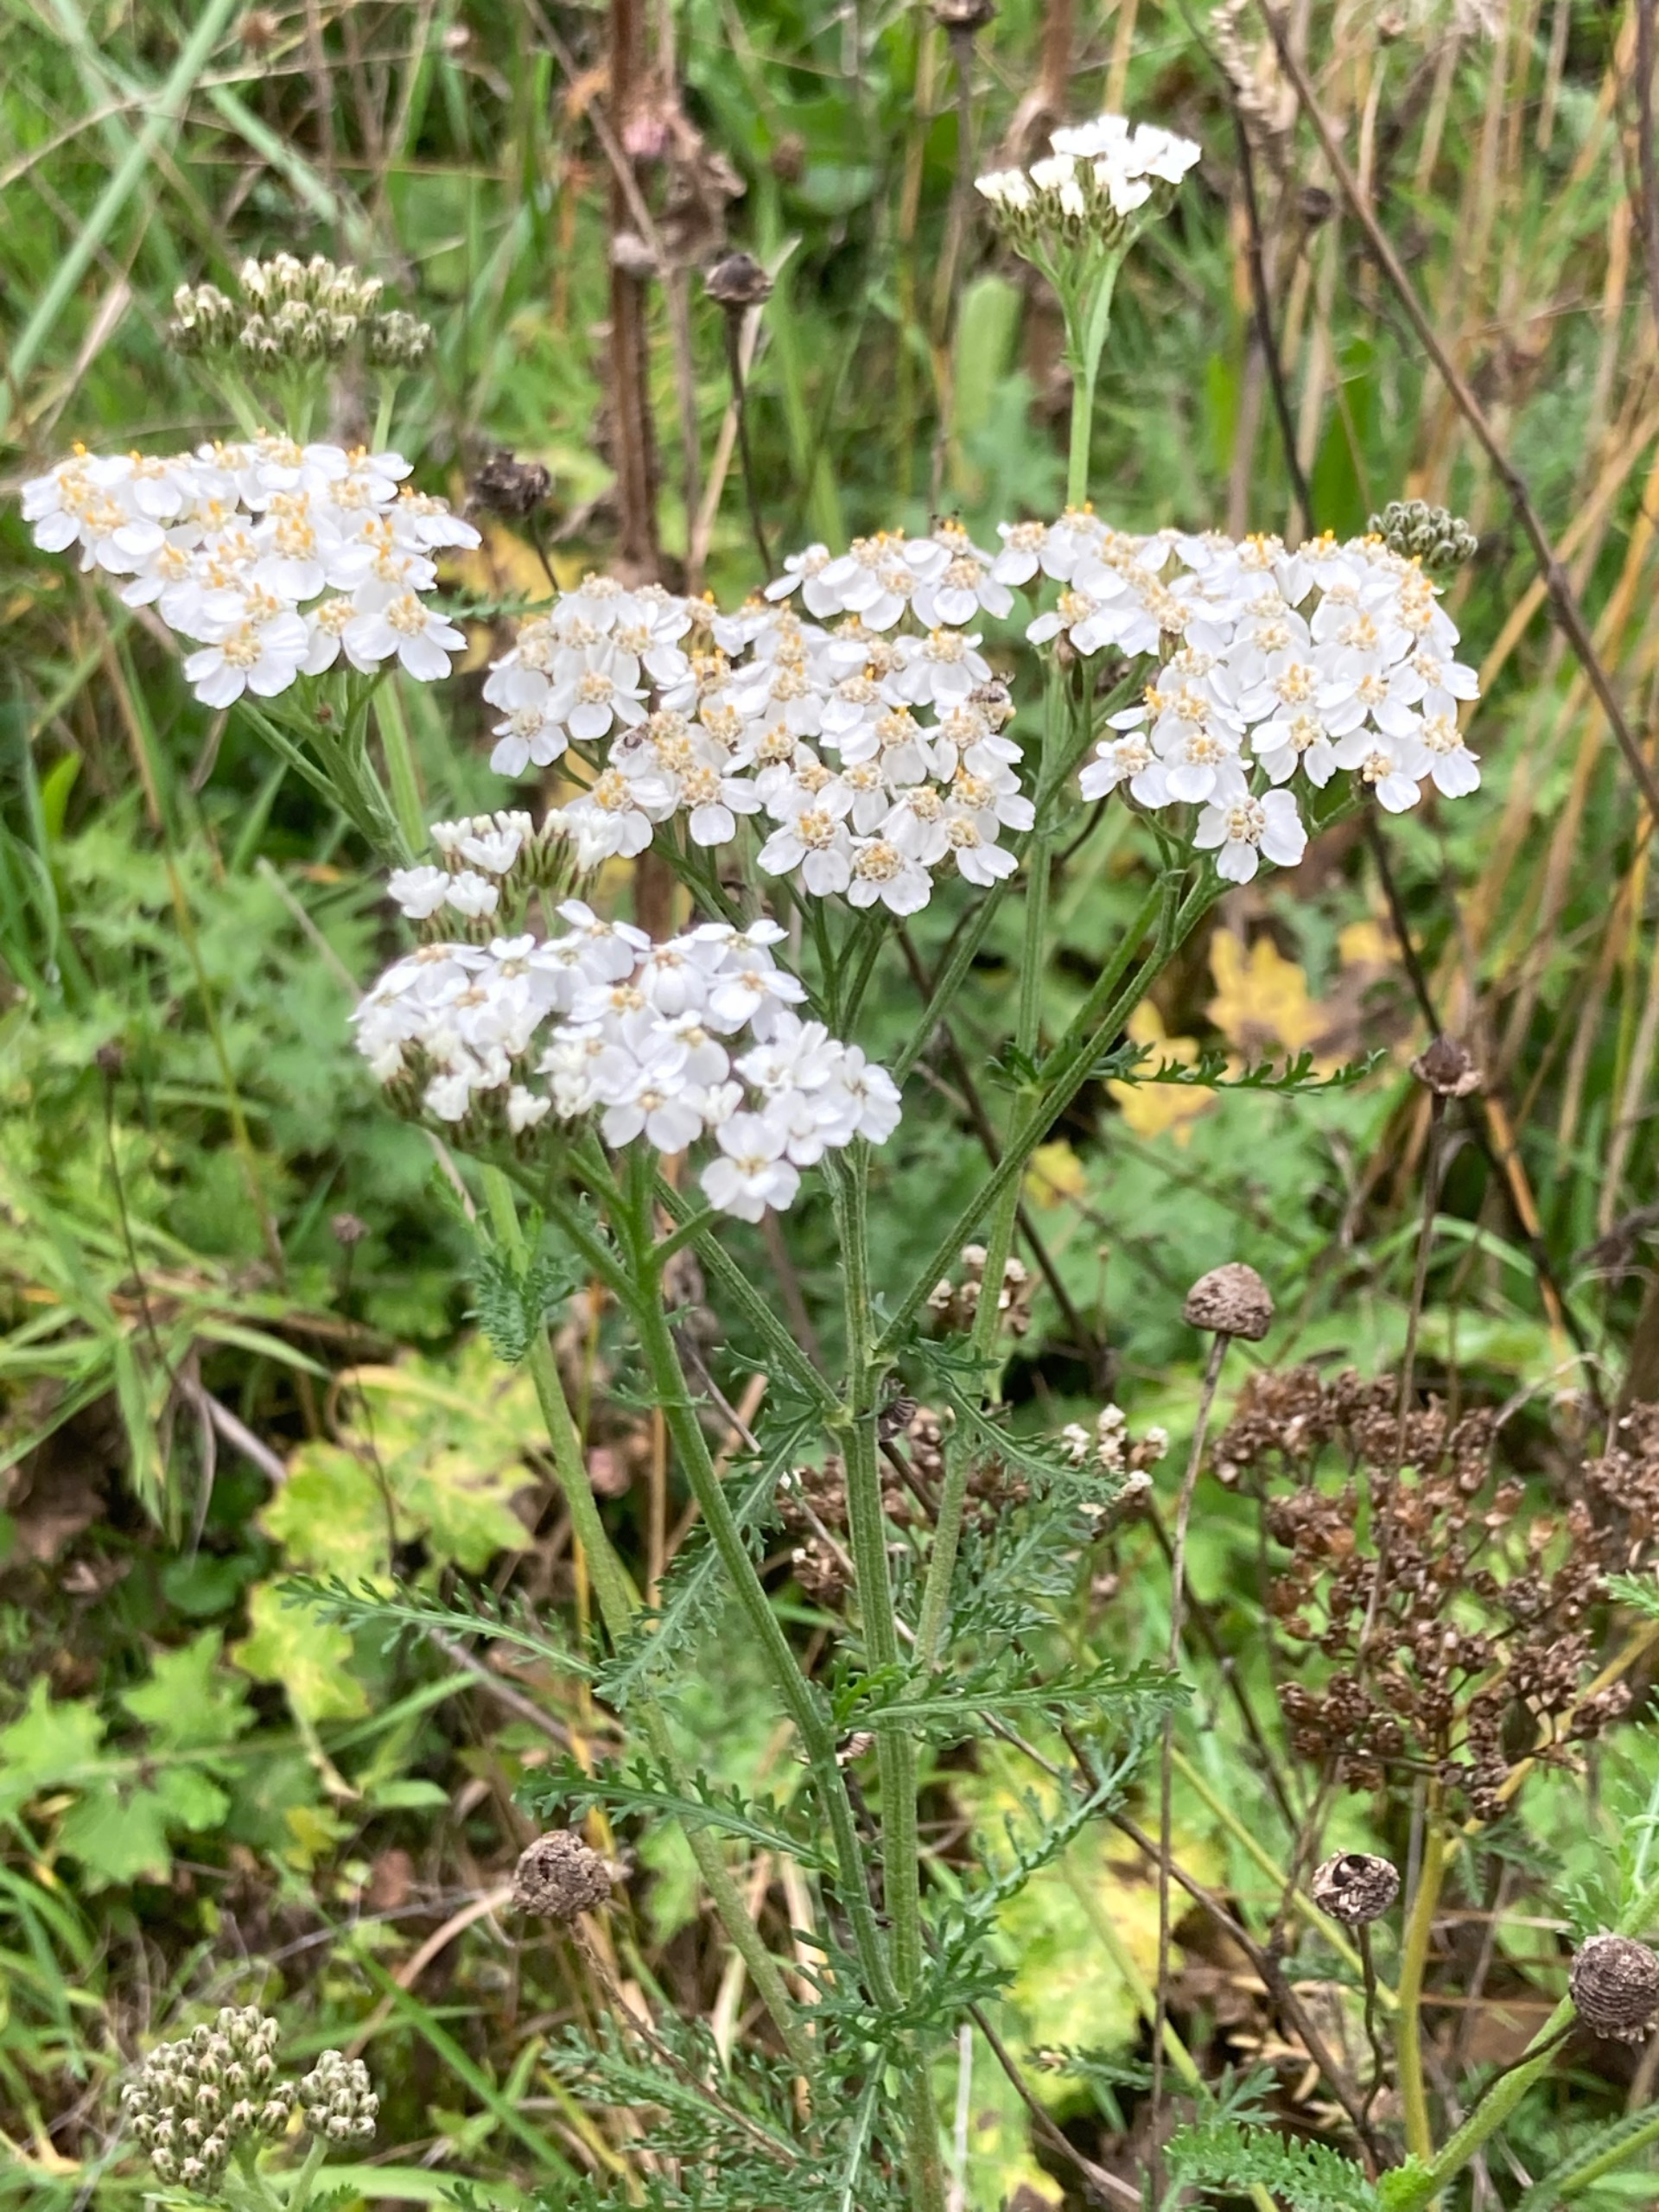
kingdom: Plantae
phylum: Tracheophyta
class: Magnoliopsida
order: Asterales
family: Asteraceae
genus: Achillea
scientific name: Achillea millefolium
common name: Almindelig røllike
